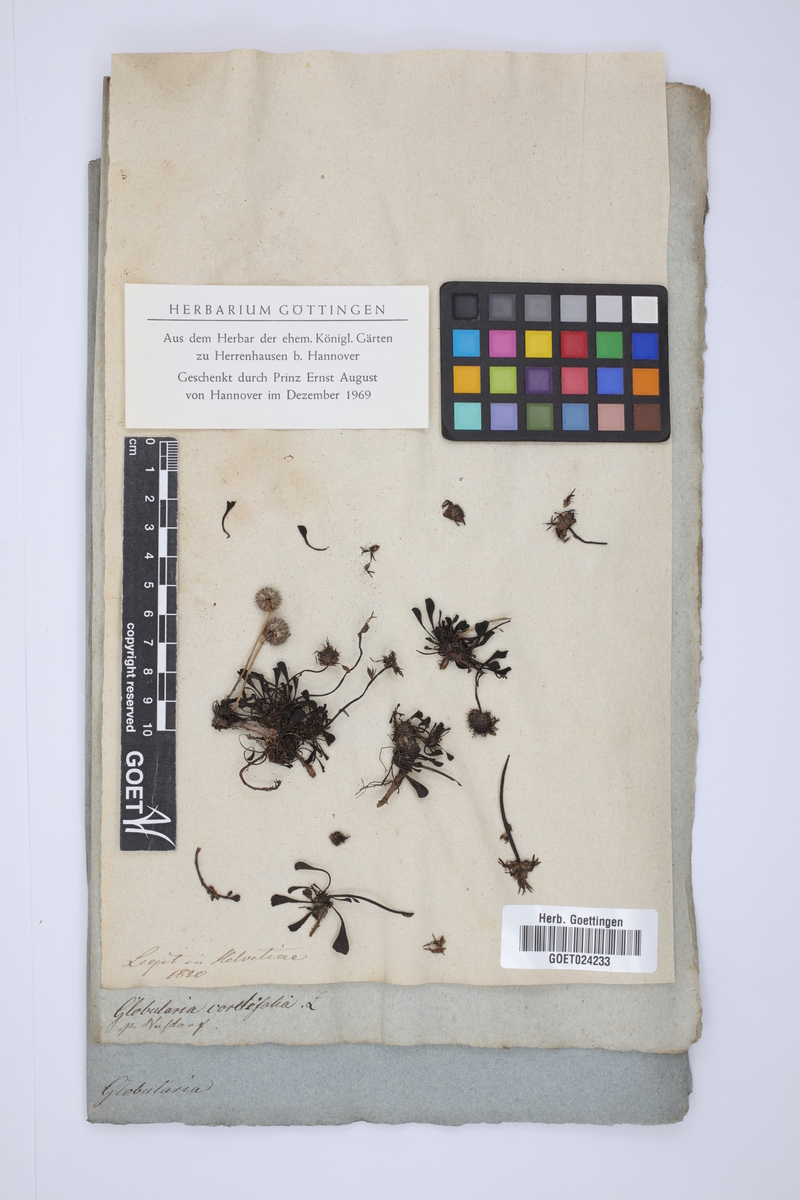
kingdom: Plantae
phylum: Tracheophyta
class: Magnoliopsida
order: Lamiales
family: Plantaginaceae
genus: Globularia
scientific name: Globularia cordifolia
